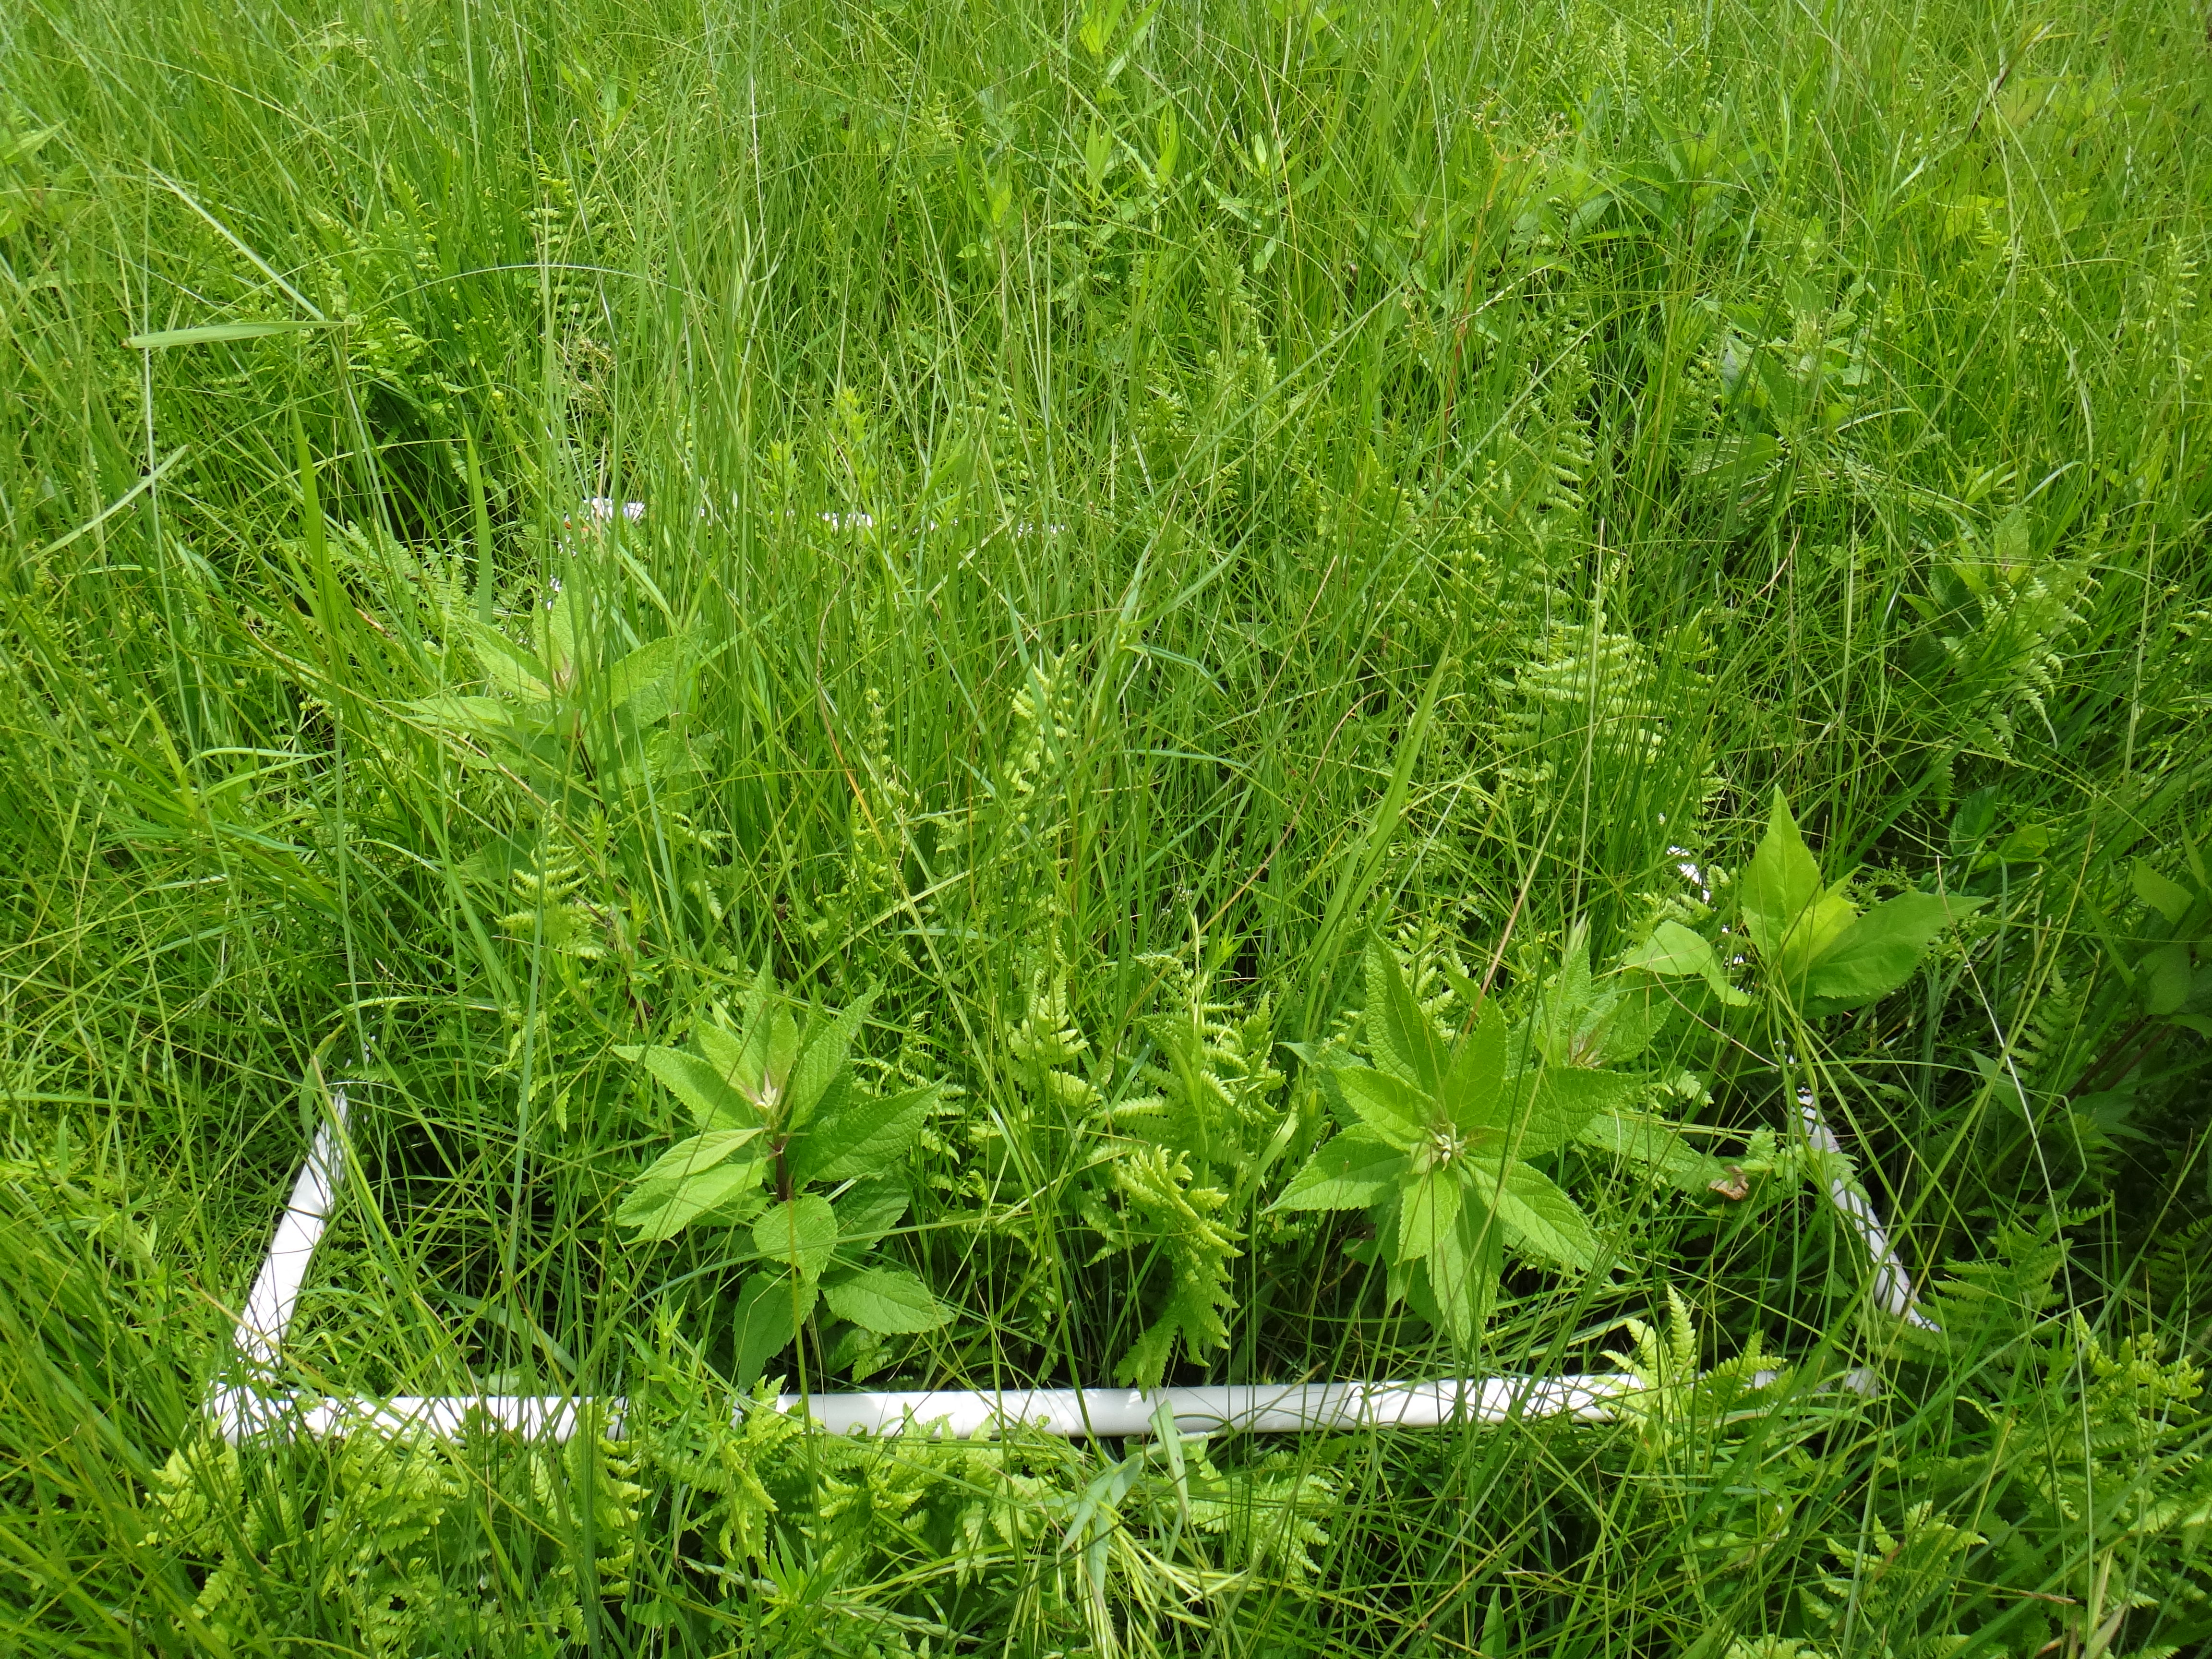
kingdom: Plantae
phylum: Tracheophyta
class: Magnoliopsida
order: Asterales
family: Asteraceae
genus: Solidago
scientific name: Solidago patula
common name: Rough-leaf goldenrod
